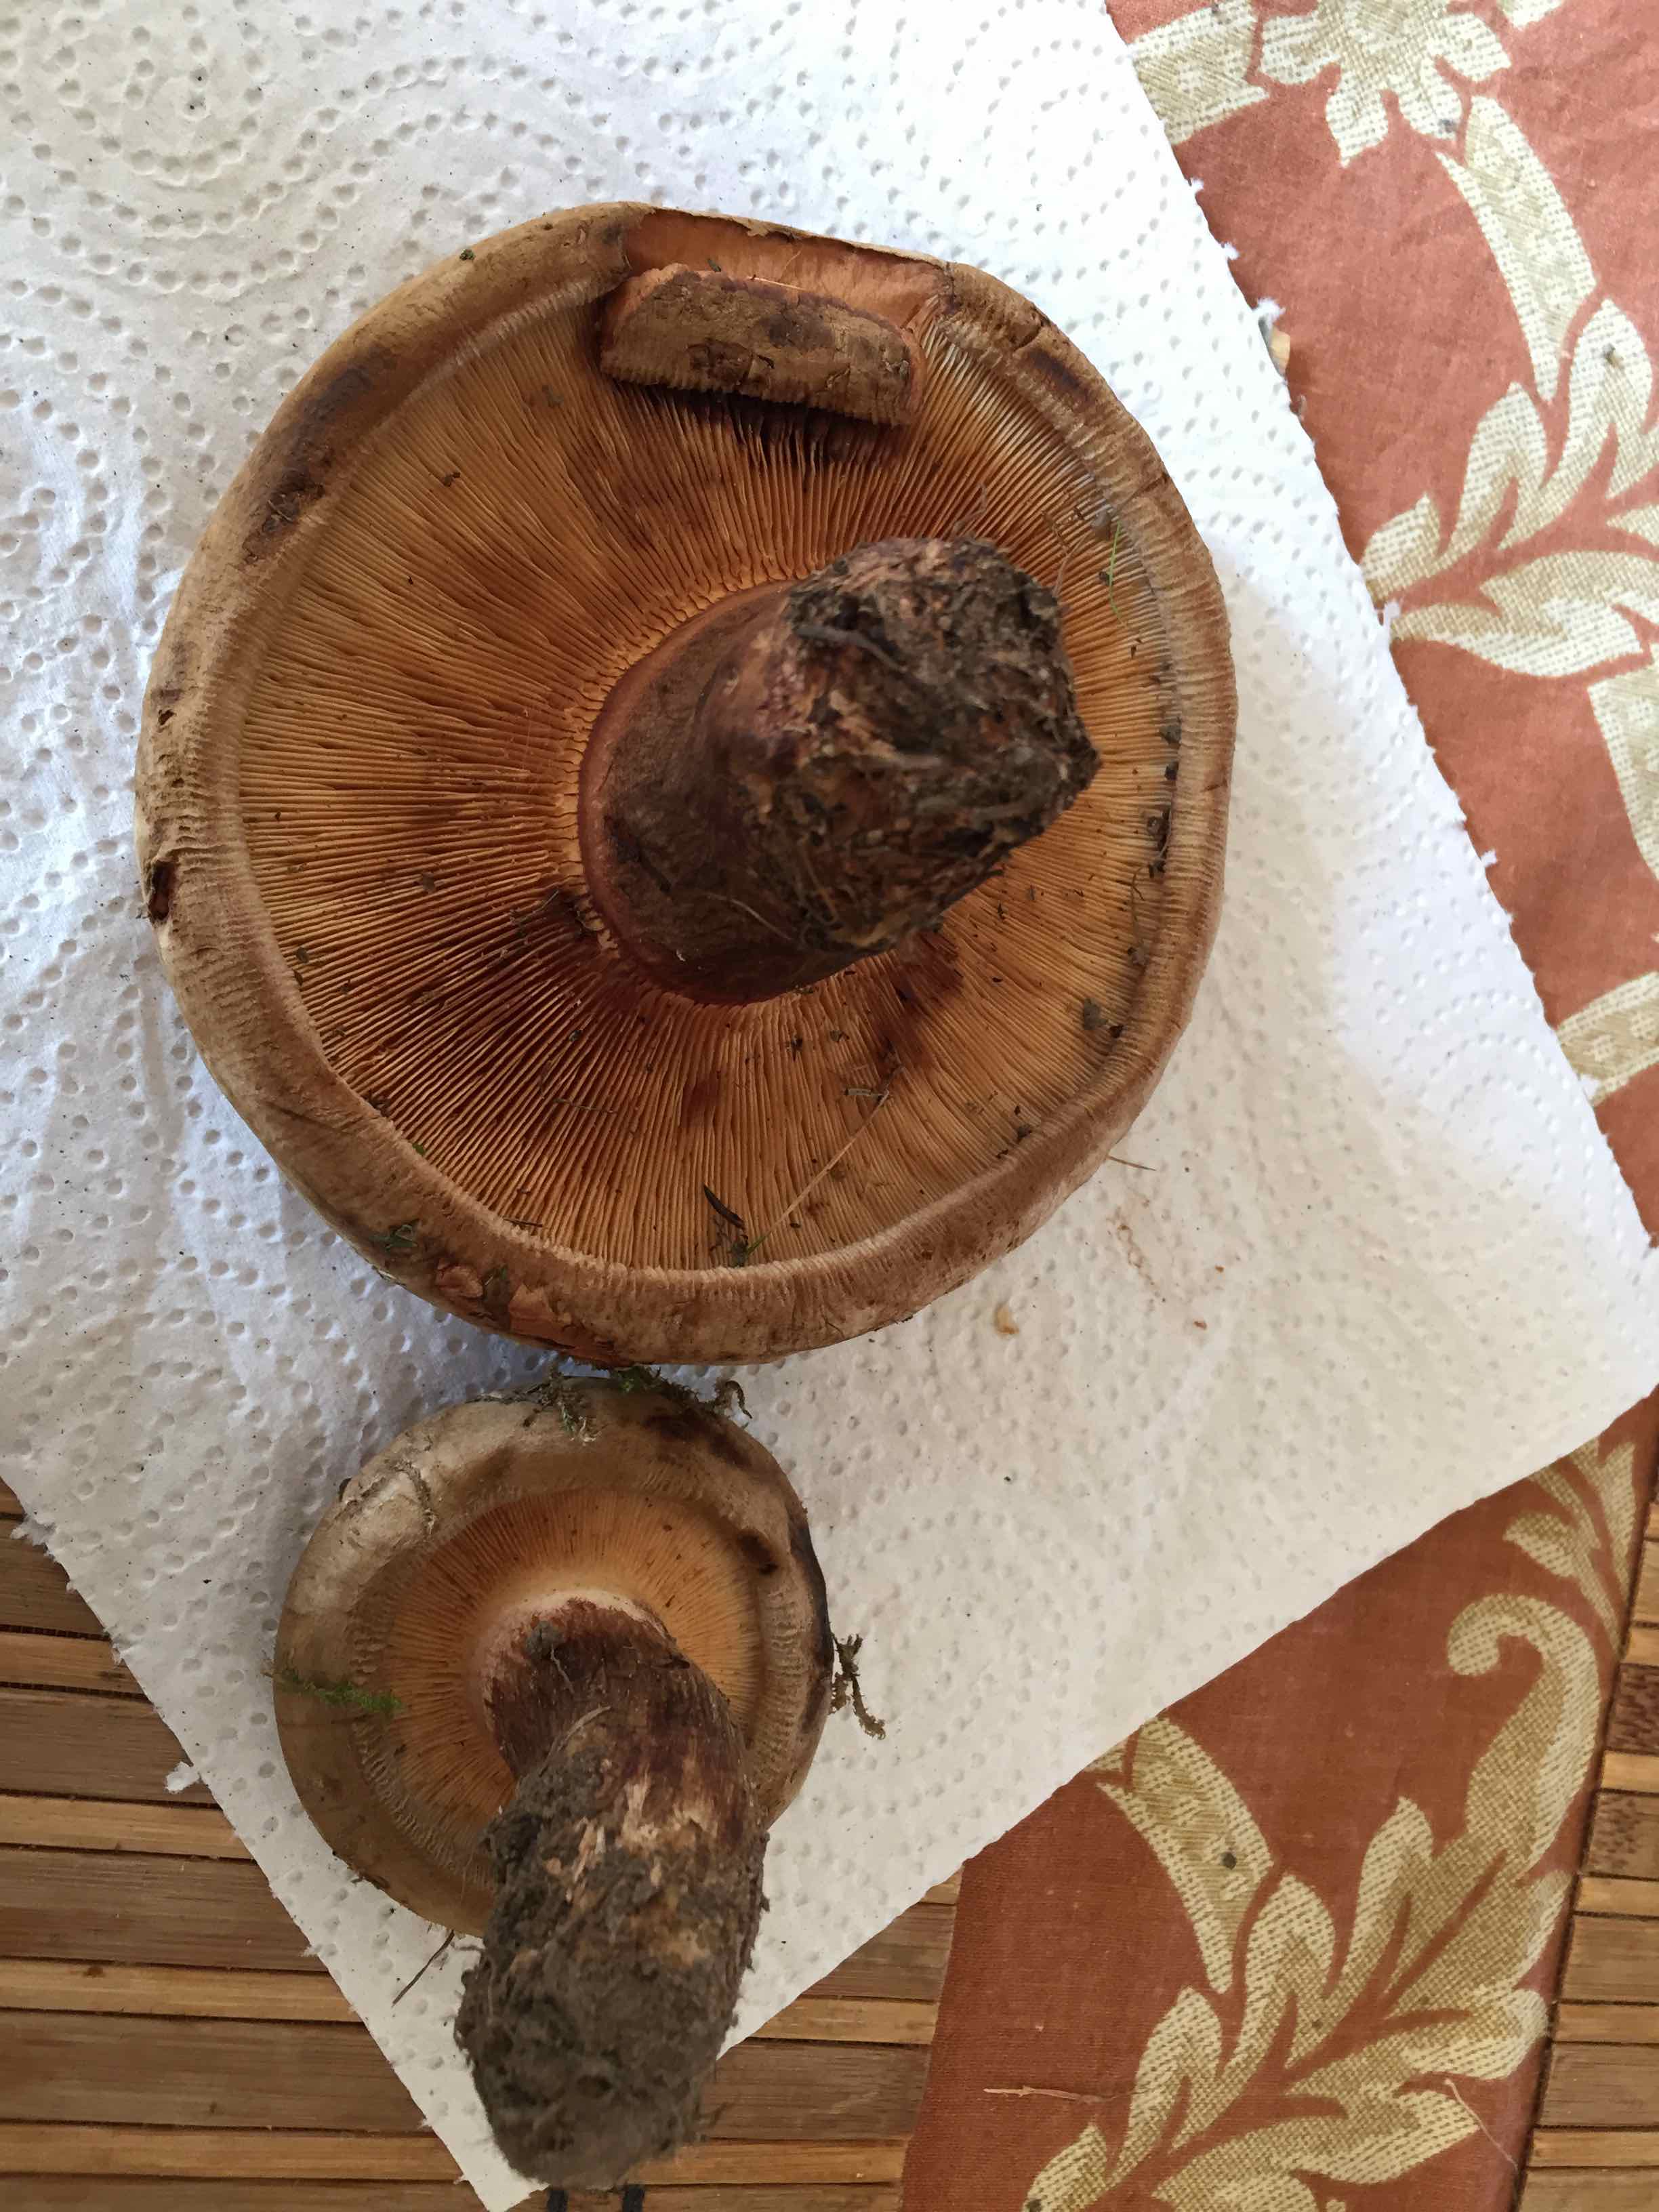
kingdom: Fungi
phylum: Basidiomycota
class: Agaricomycetes
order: Boletales
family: Paxillaceae
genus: Paxillus
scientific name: Paxillus involutus
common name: almindelig netbladhat
